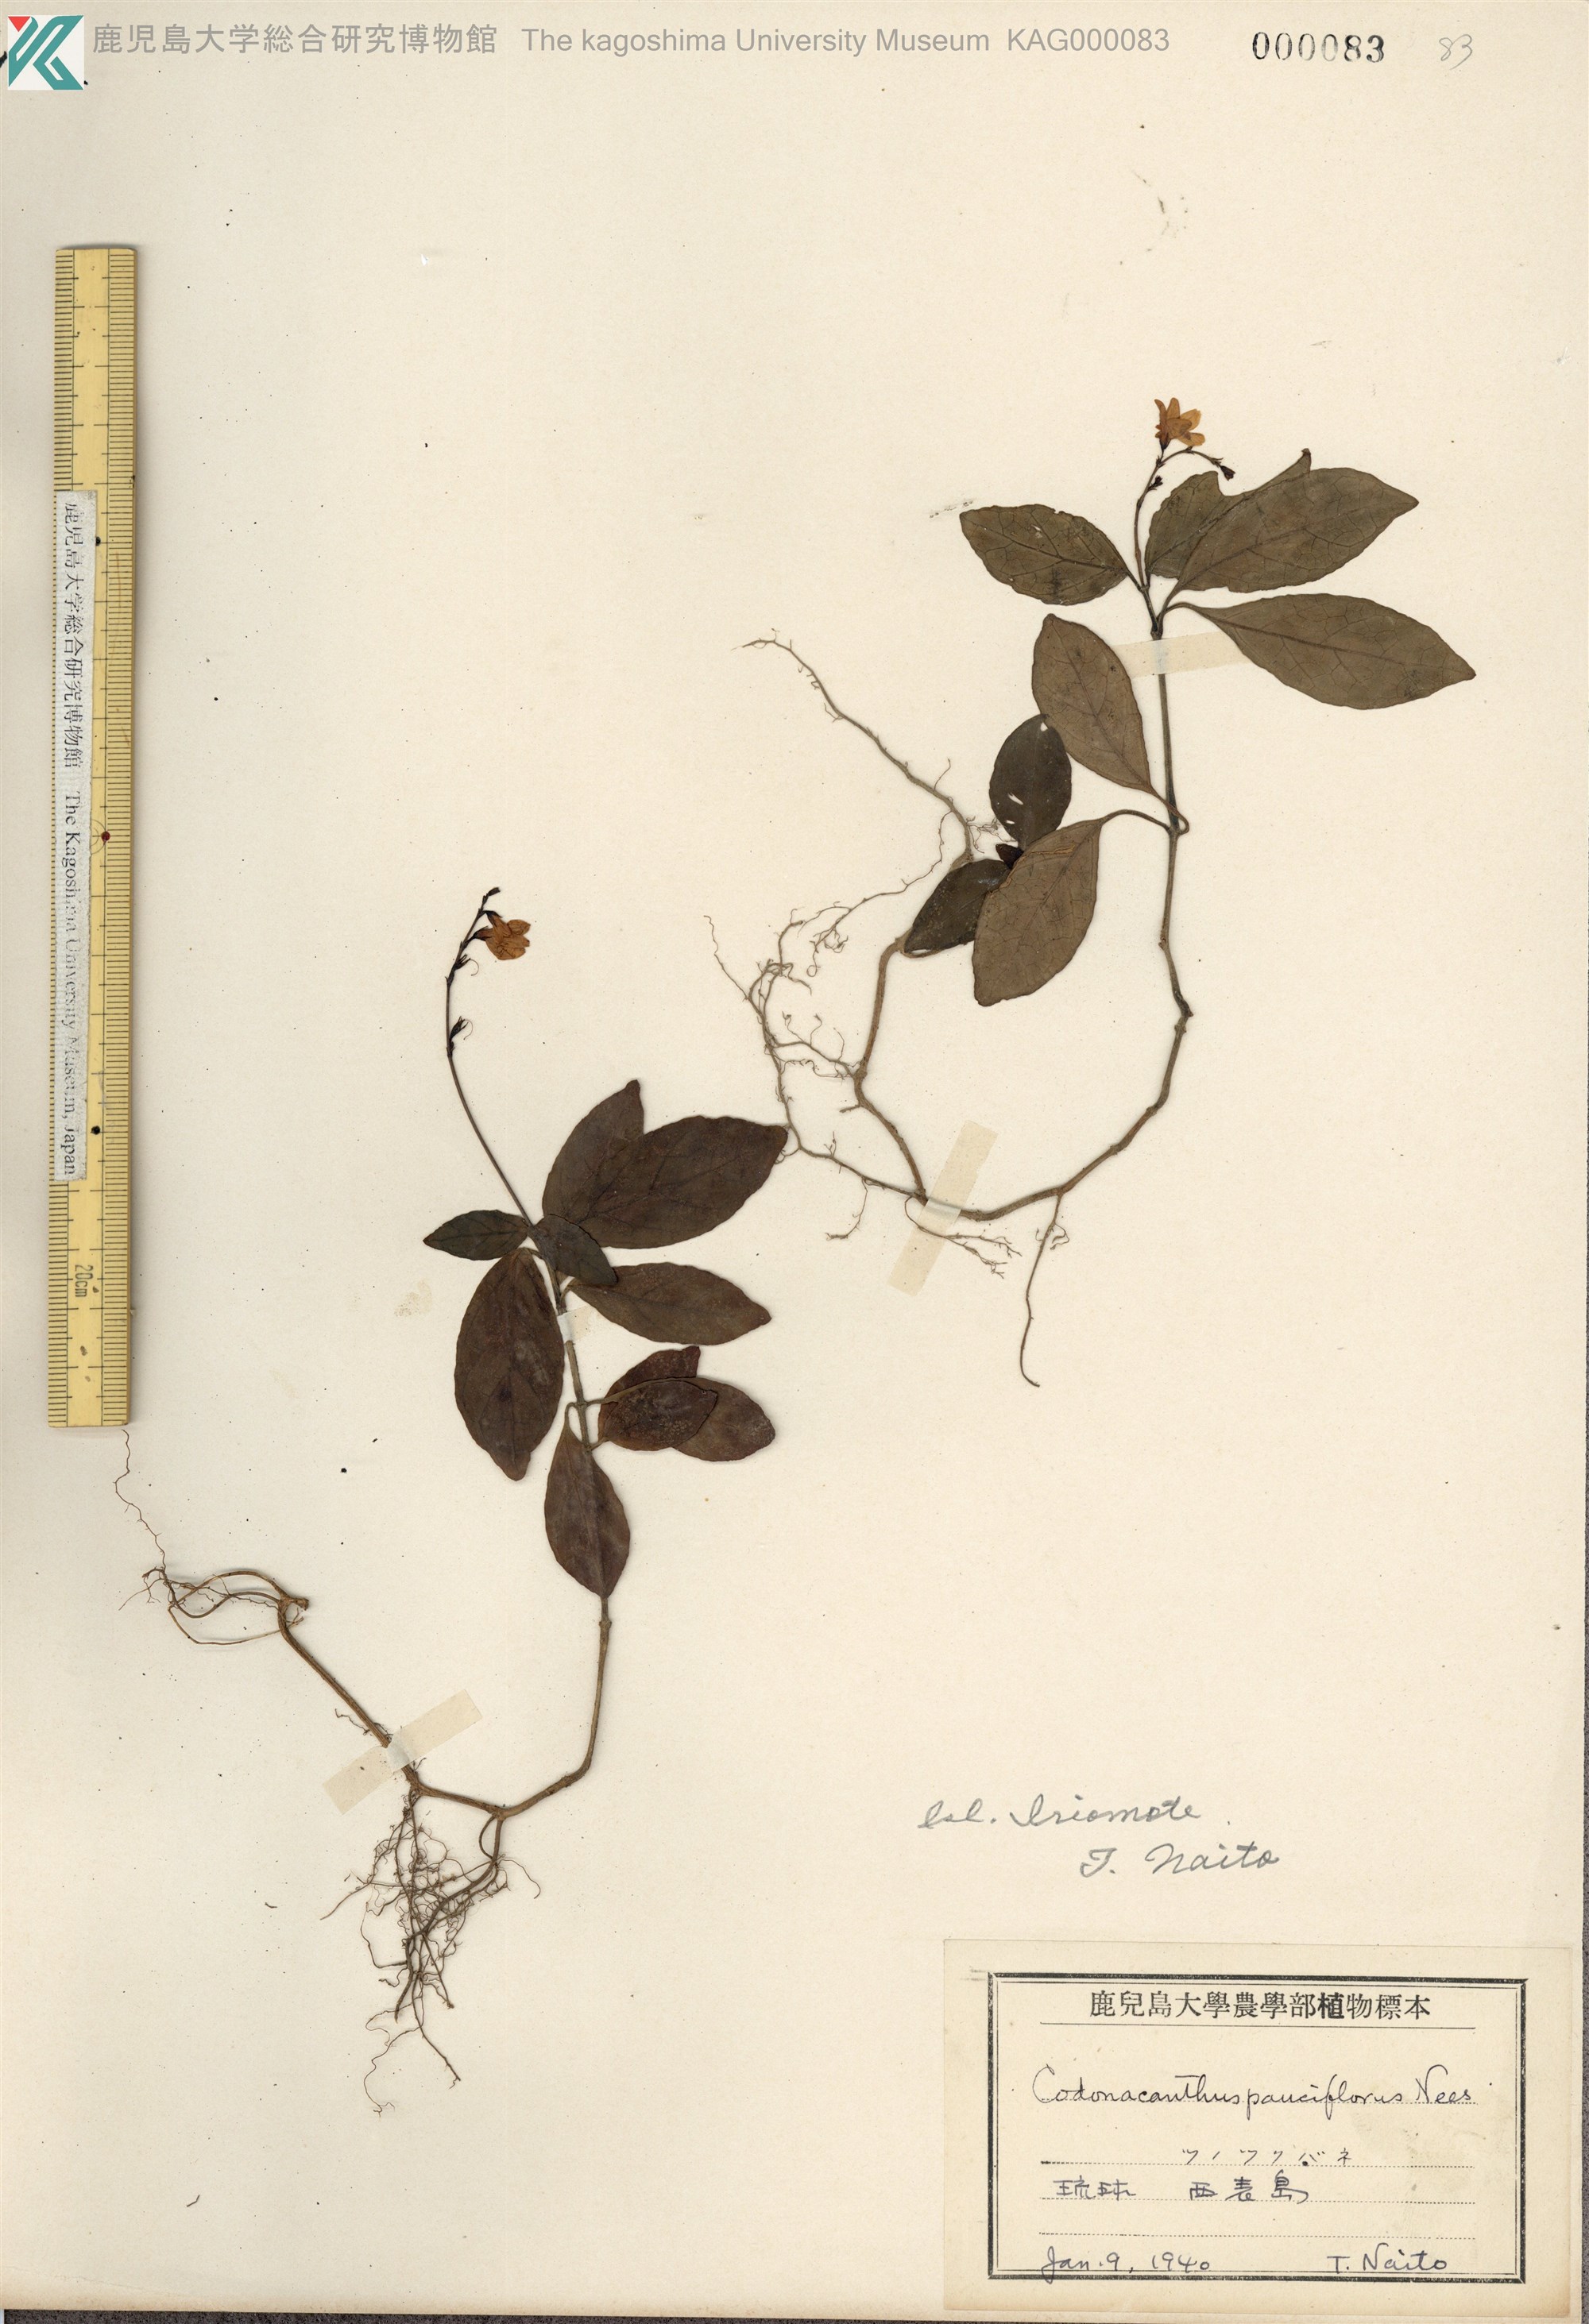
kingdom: Plantae
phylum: Tracheophyta
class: Magnoliopsida
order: Lamiales
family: Acanthaceae
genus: Codonacanthus
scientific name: Codonacanthus pauciflorus
